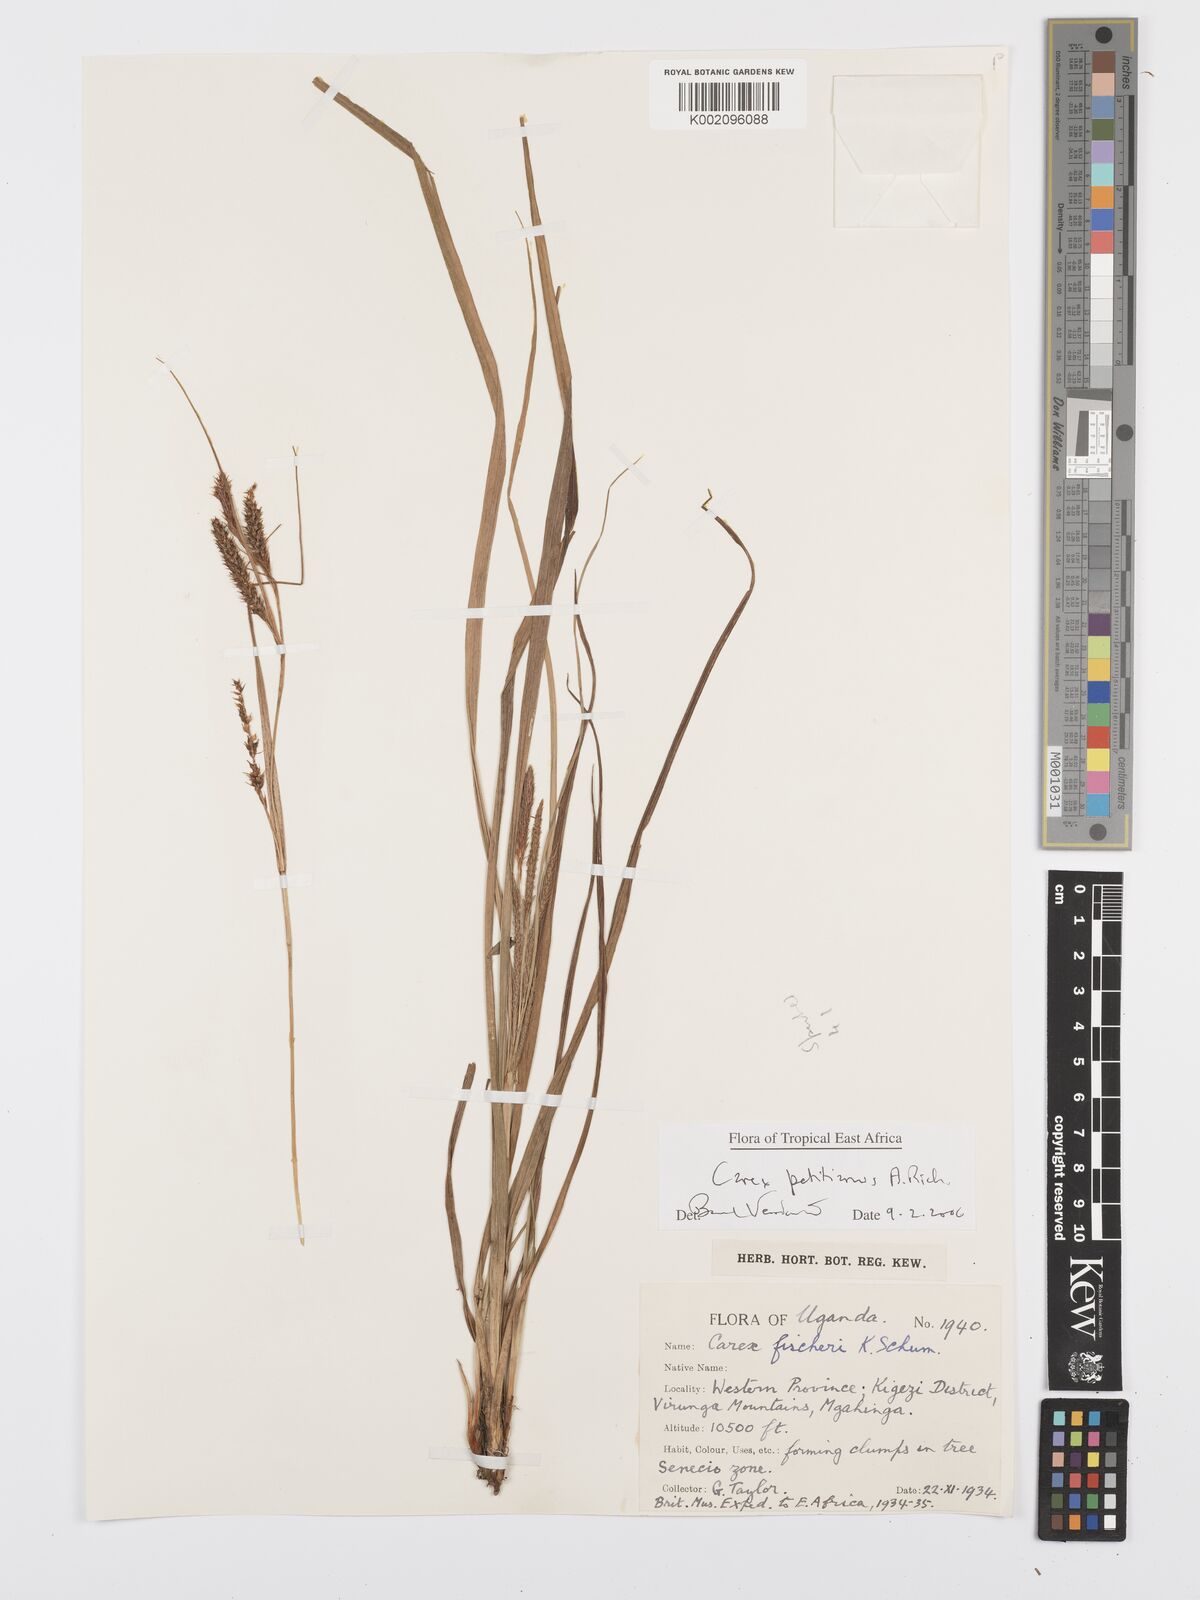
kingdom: Plantae
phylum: Tracheophyta
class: Liliopsida
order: Poales
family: Cyperaceae
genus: Carex
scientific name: Carex fischeri
